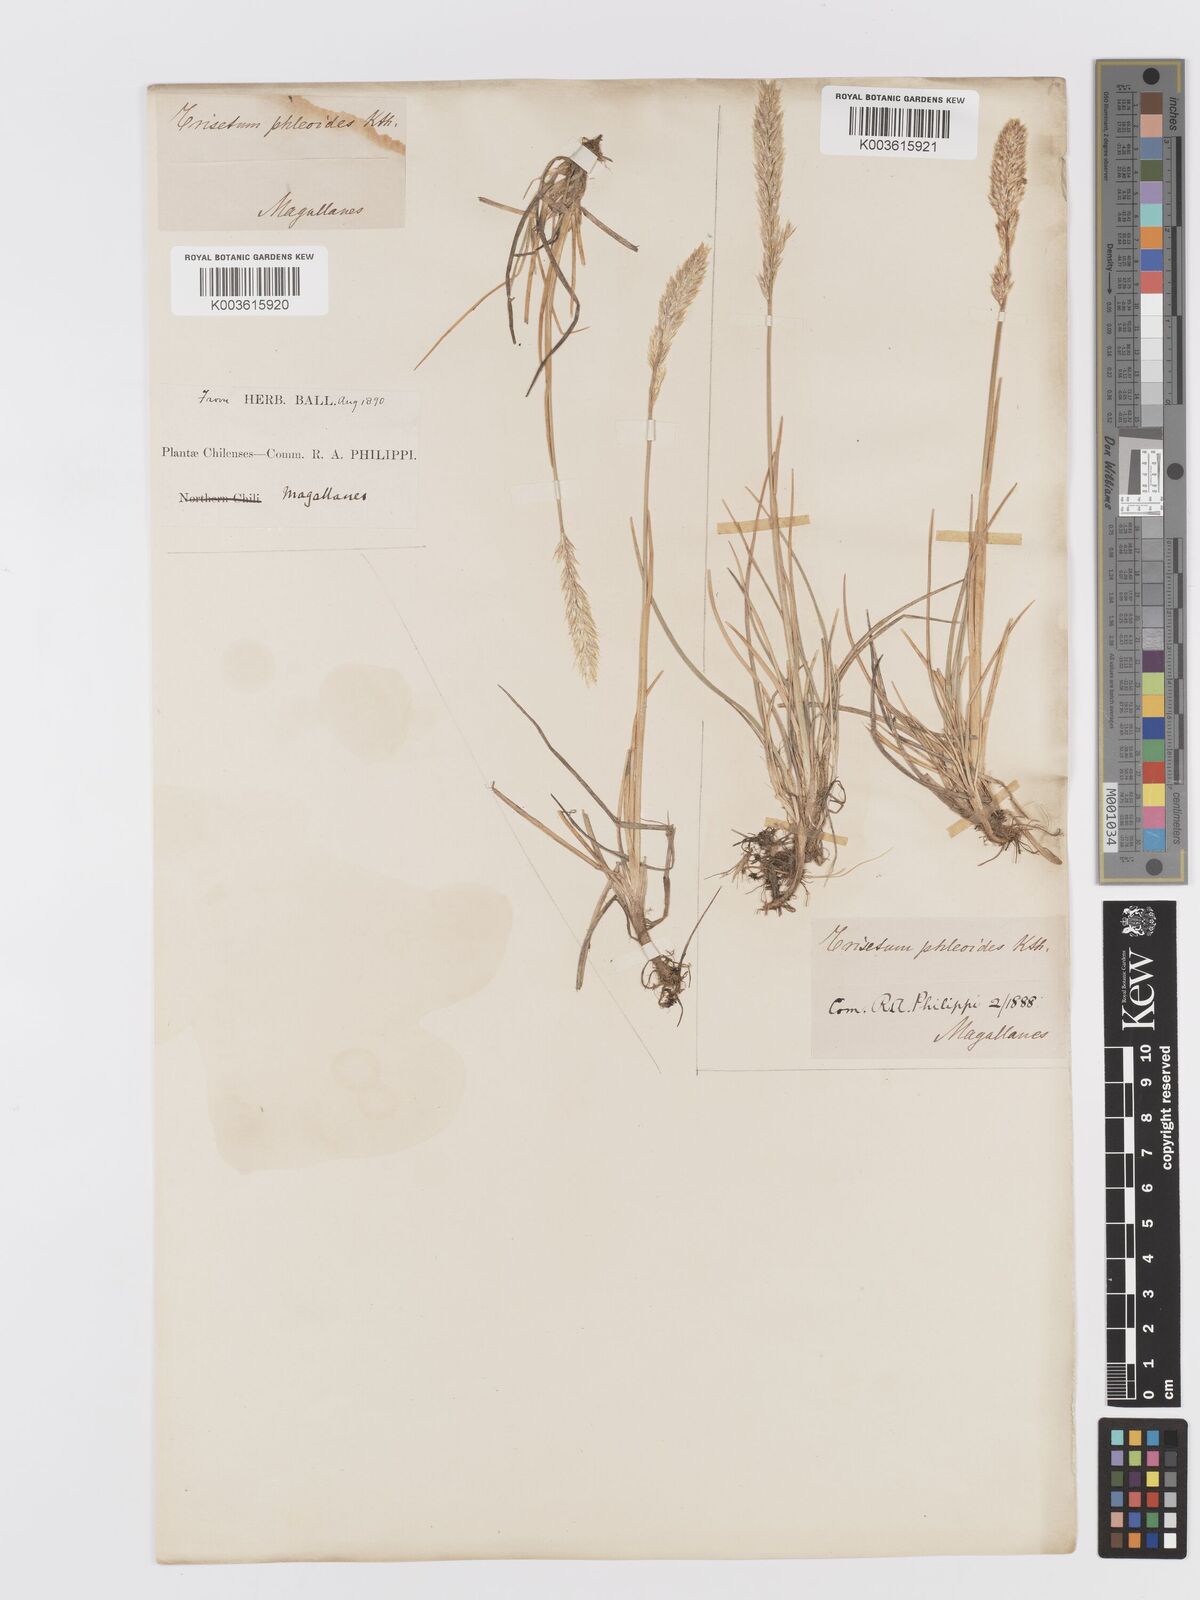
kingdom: Plantae
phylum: Tracheophyta
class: Liliopsida
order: Poales
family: Poaceae
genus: Koeleria
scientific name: Koeleria spicata
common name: Mountain trisetum
